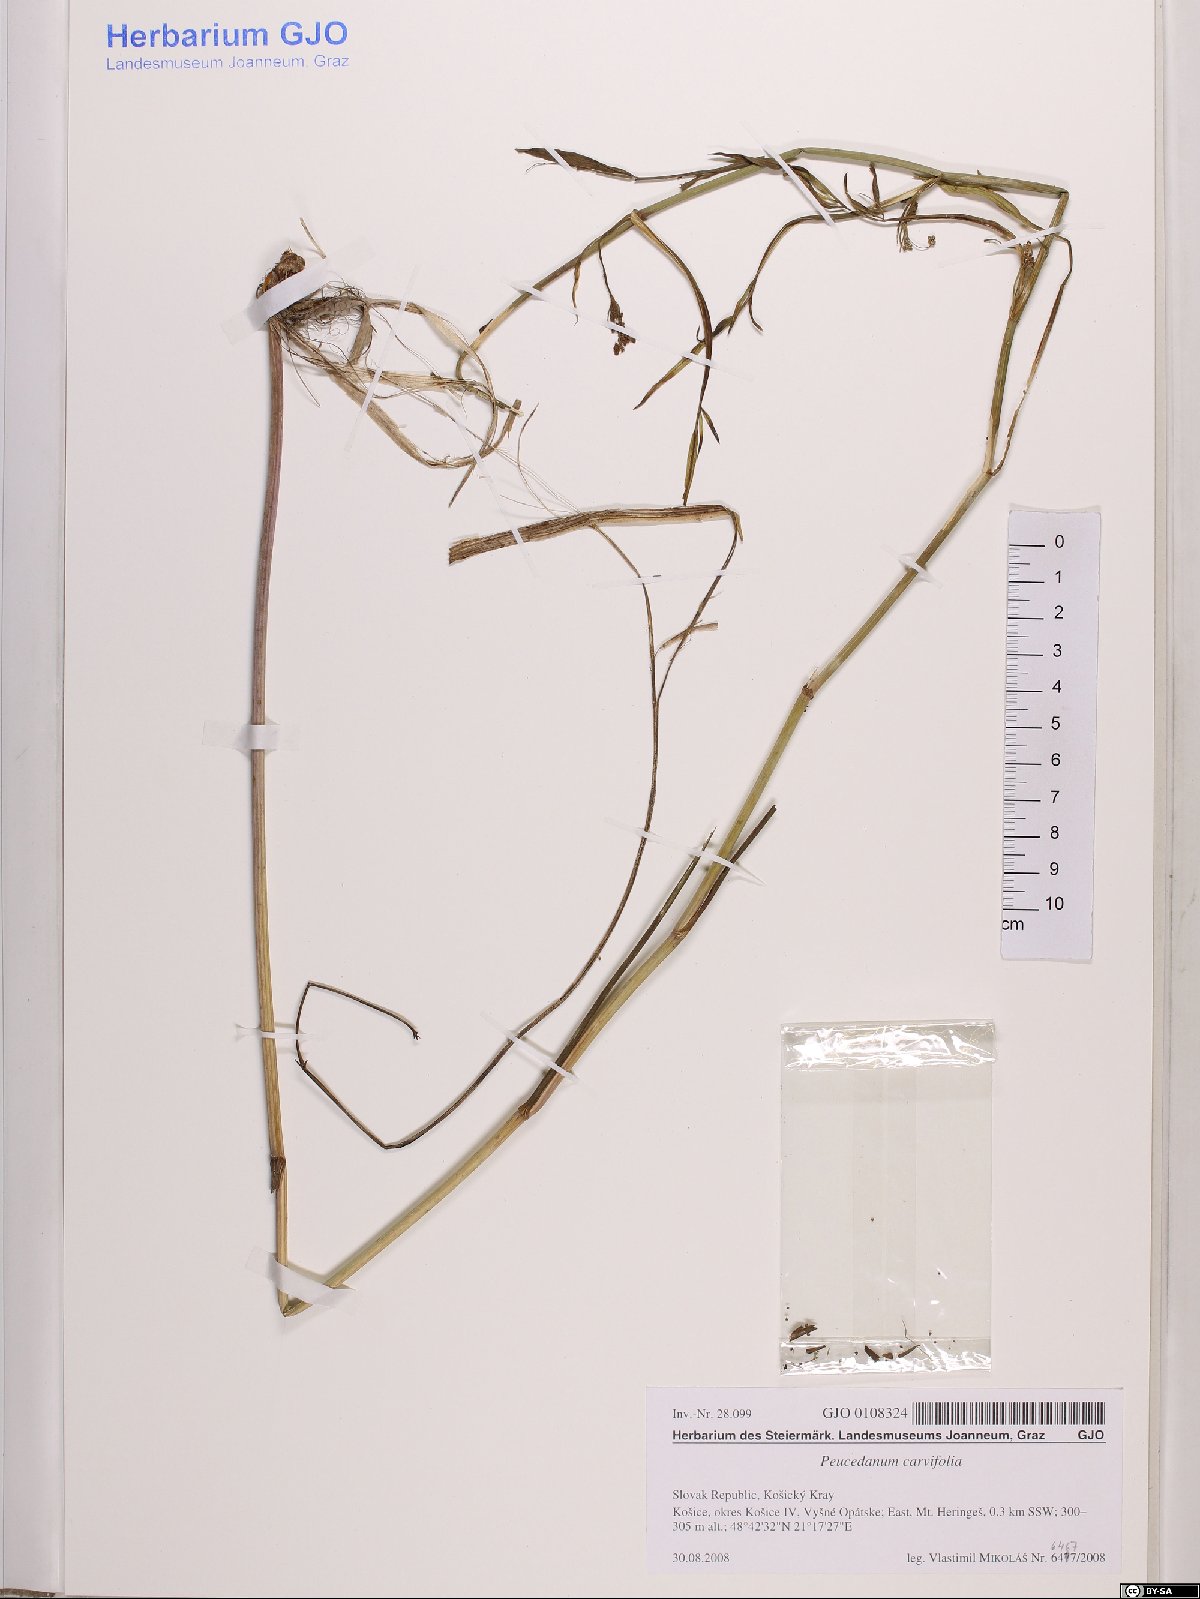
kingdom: Plantae
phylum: Tracheophyta
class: Magnoliopsida
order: Apiales
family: Apiaceae
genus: Dichoropetalum
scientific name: Dichoropetalum carvifolia
